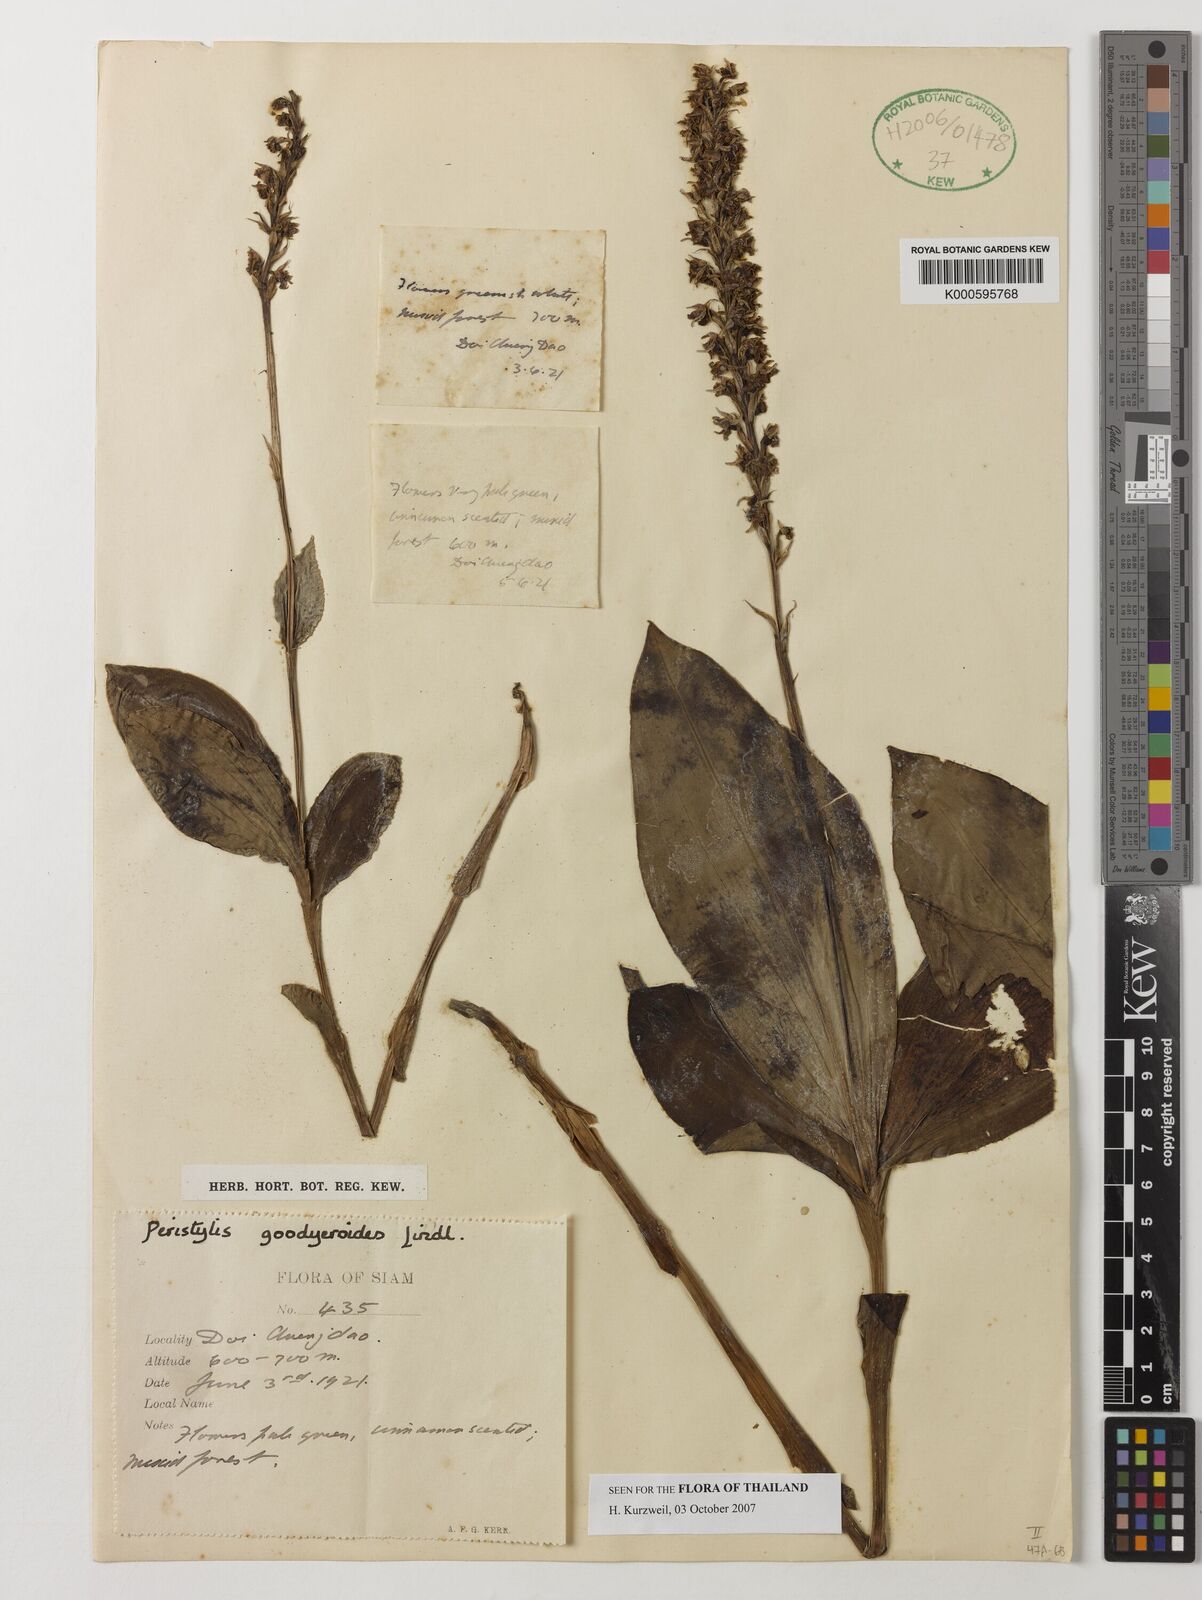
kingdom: Plantae
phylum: Tracheophyta
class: Liliopsida
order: Asparagales
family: Orchidaceae
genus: Peristylus
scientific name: Peristylus goodyeroides
